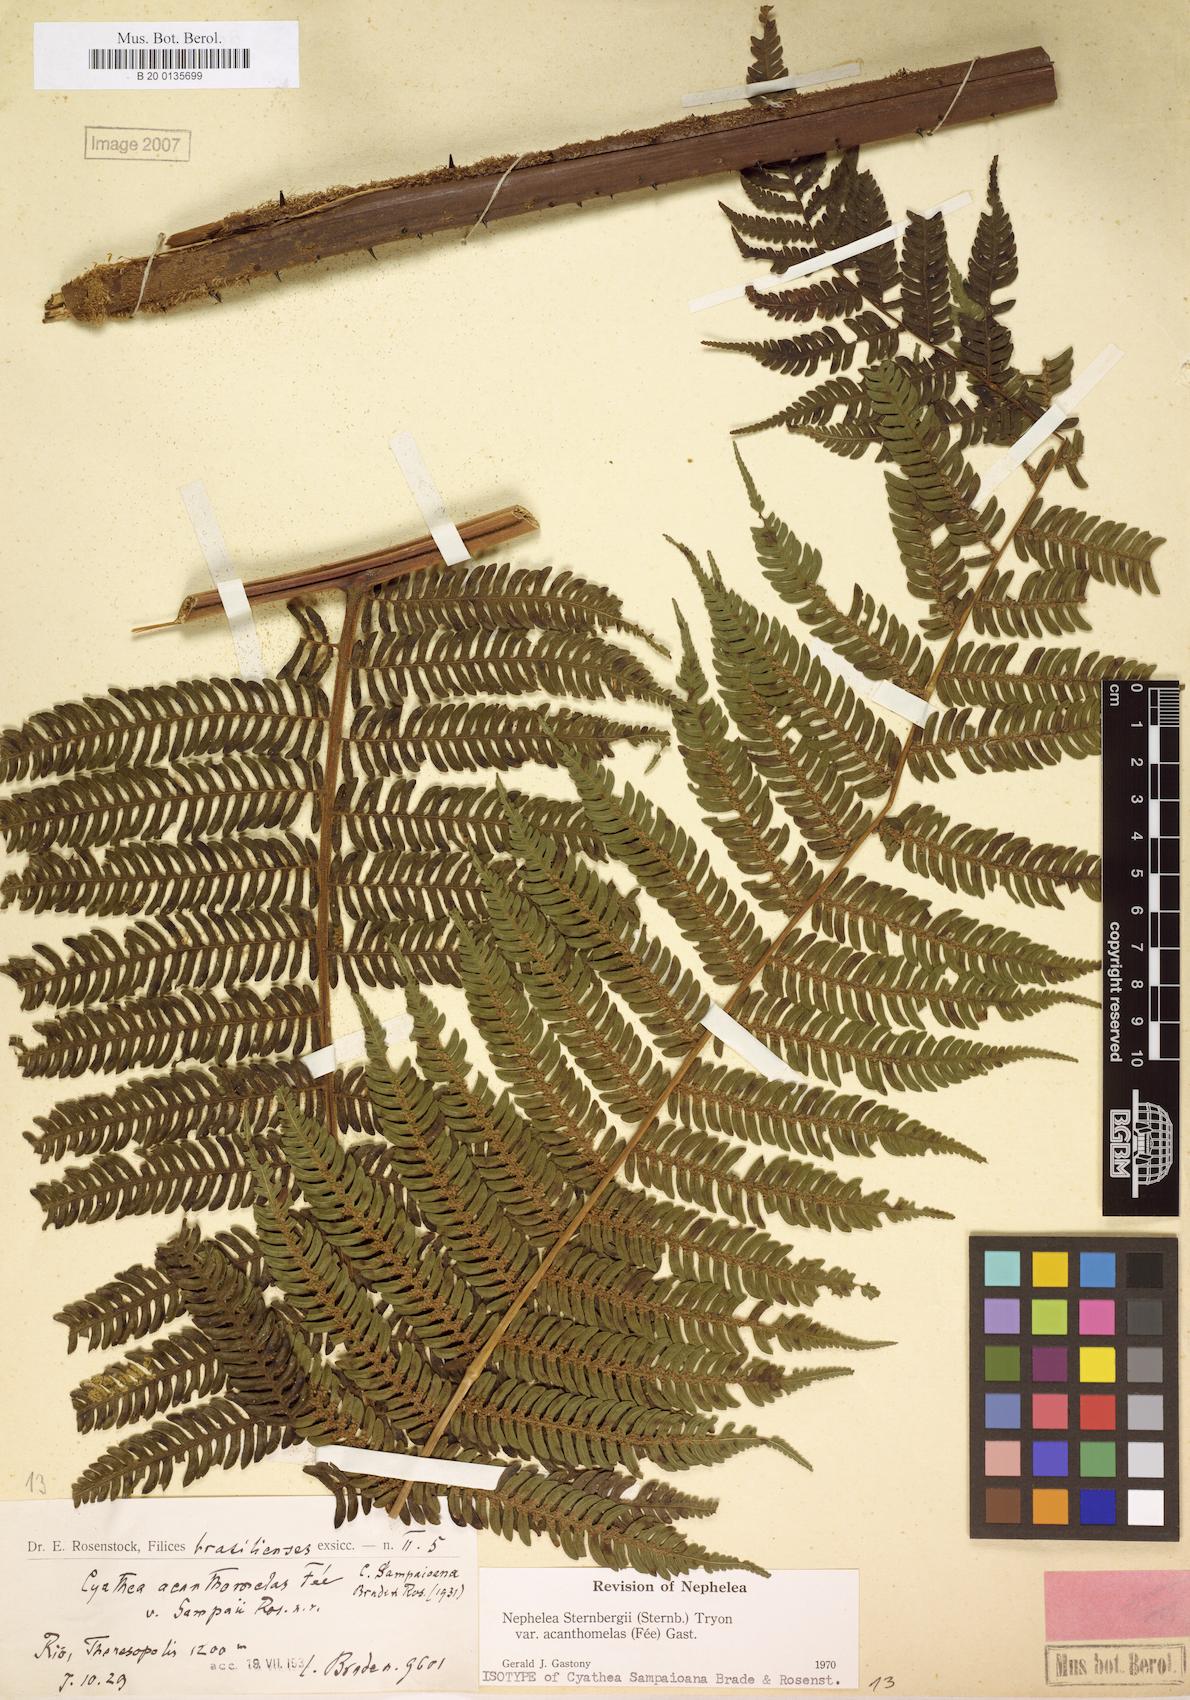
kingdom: Plantae
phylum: Tracheophyta
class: Polypodiopsida
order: Cyatheales
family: Cyatheaceae
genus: Alsophila
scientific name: Alsophila sternbergii
